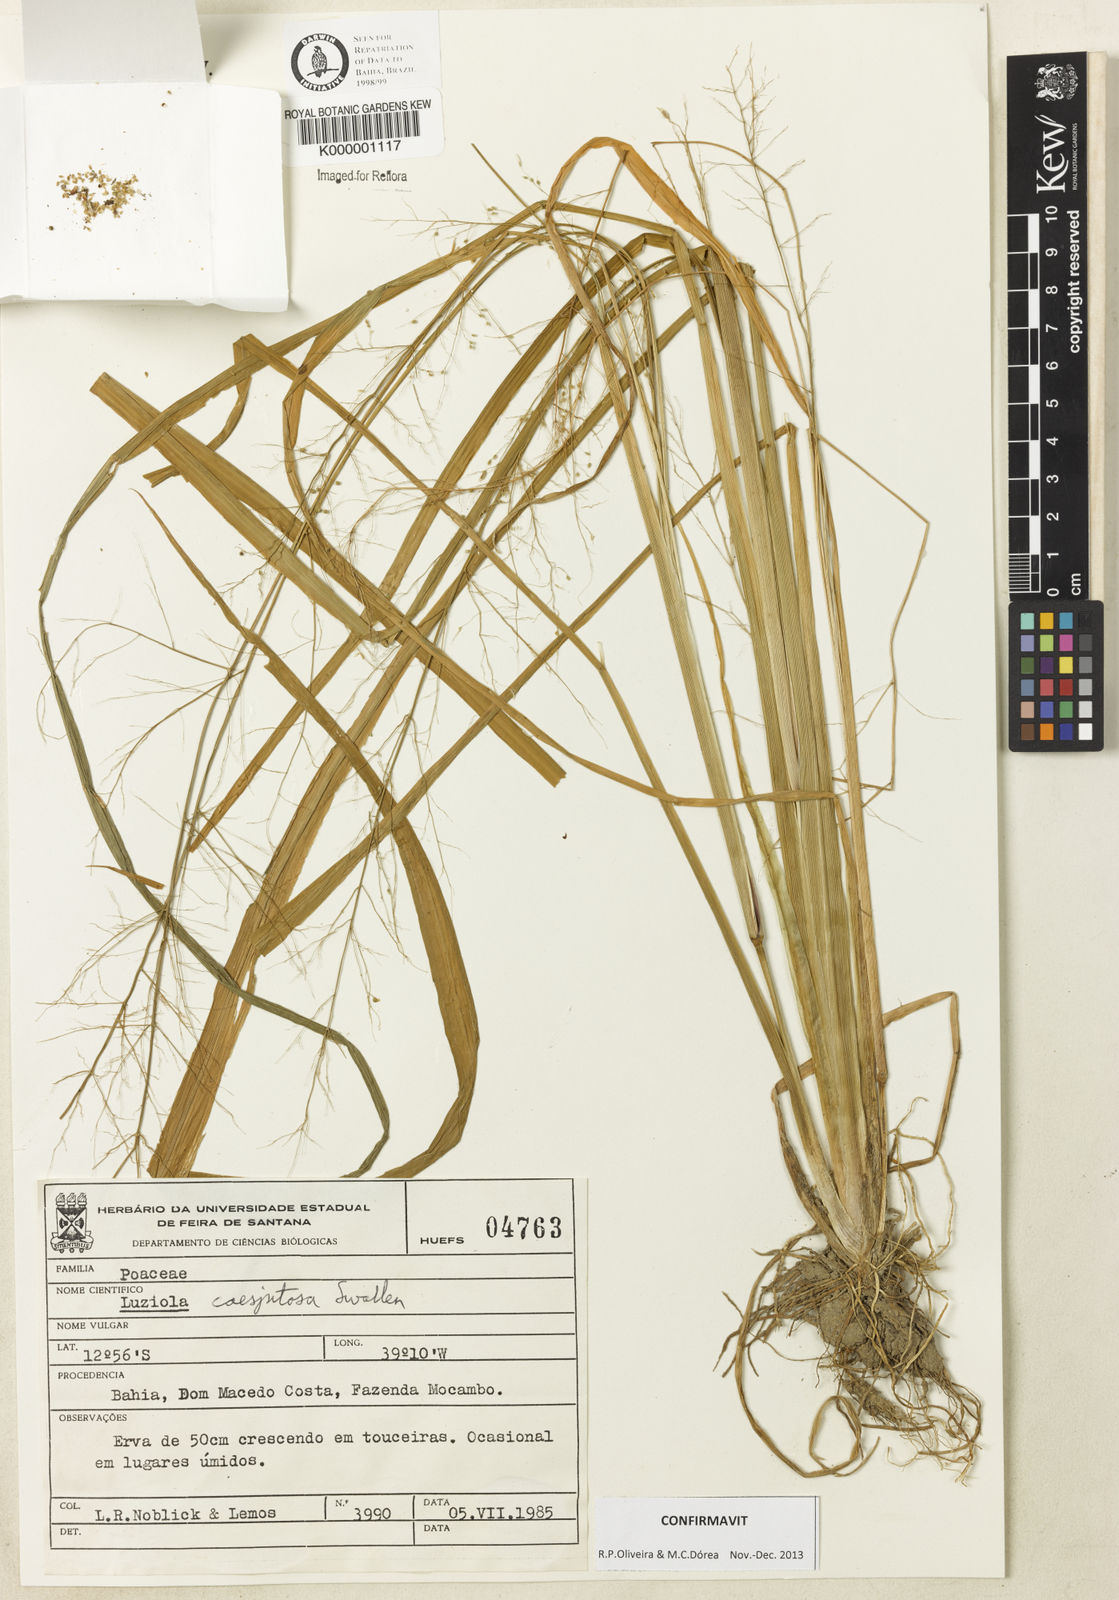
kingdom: Plantae
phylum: Tracheophyta
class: Liliopsida
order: Poales
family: Poaceae
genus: Luziola
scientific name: Luziola caespitosa
